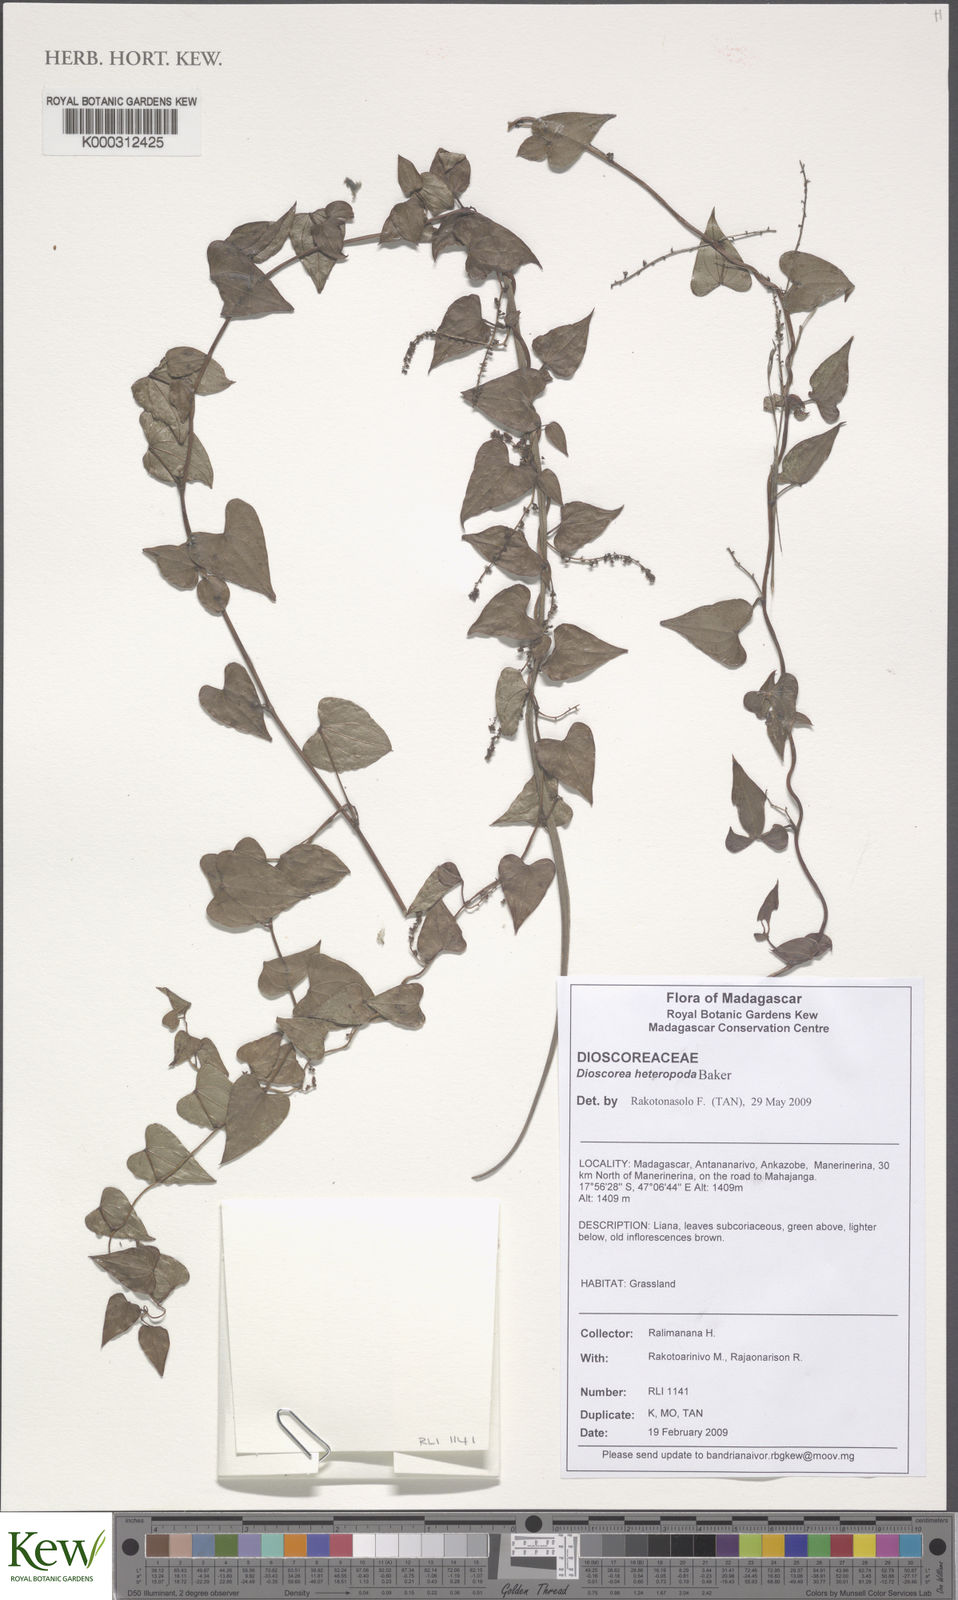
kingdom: Plantae
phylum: Tracheophyta
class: Liliopsida
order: Dioscoreales
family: Dioscoreaceae
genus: Dioscorea
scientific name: Dioscorea heteropoda
